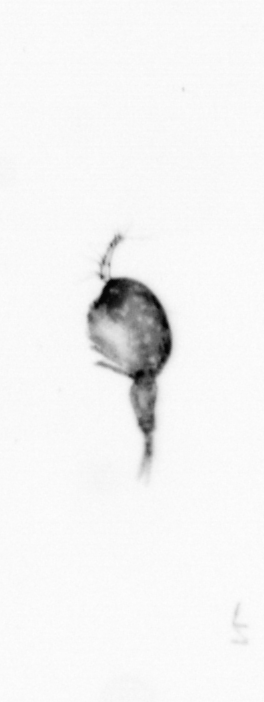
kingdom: Animalia
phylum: Arthropoda
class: Copepoda
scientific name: Copepoda
